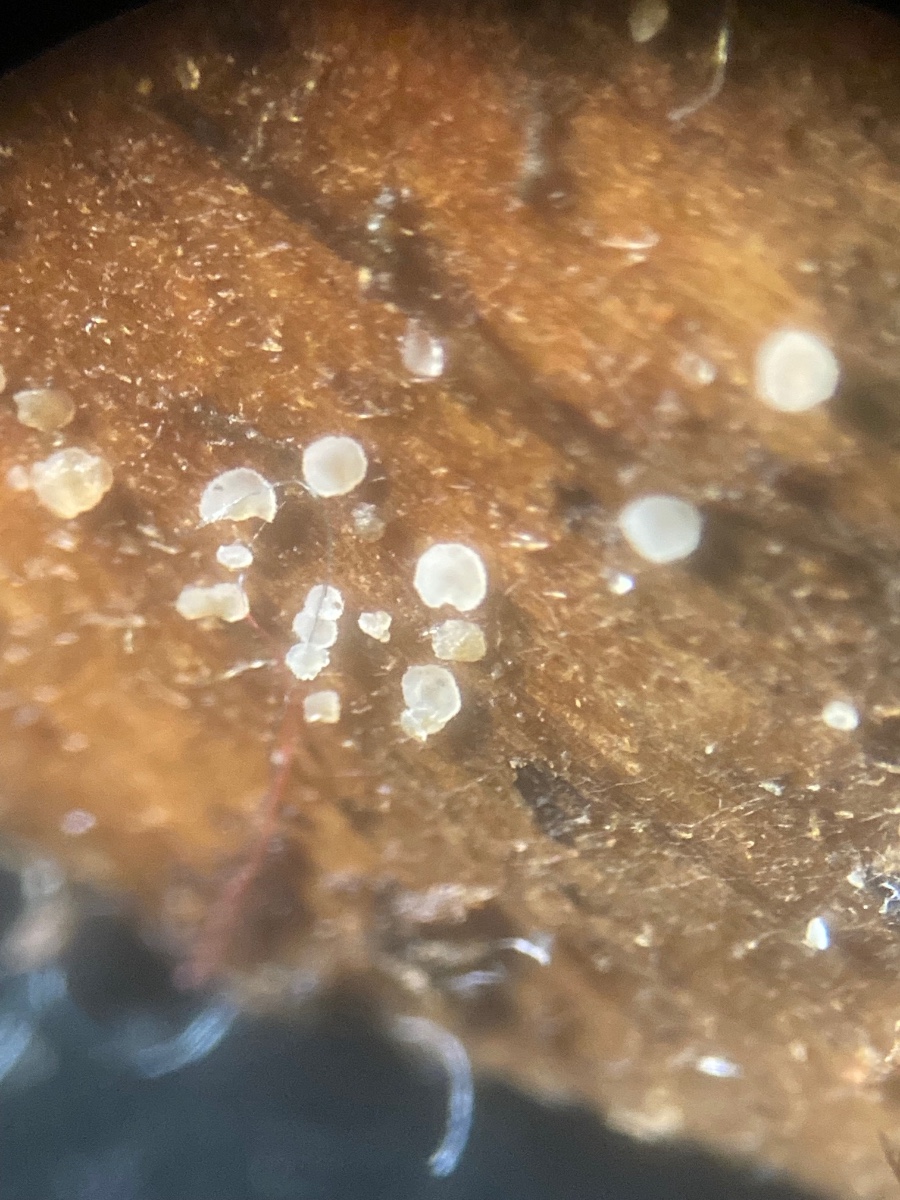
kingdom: Fungi
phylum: Ascomycota
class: Leotiomycetes
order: Helotiales
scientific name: Helotiales
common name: stilkskiveordenen
